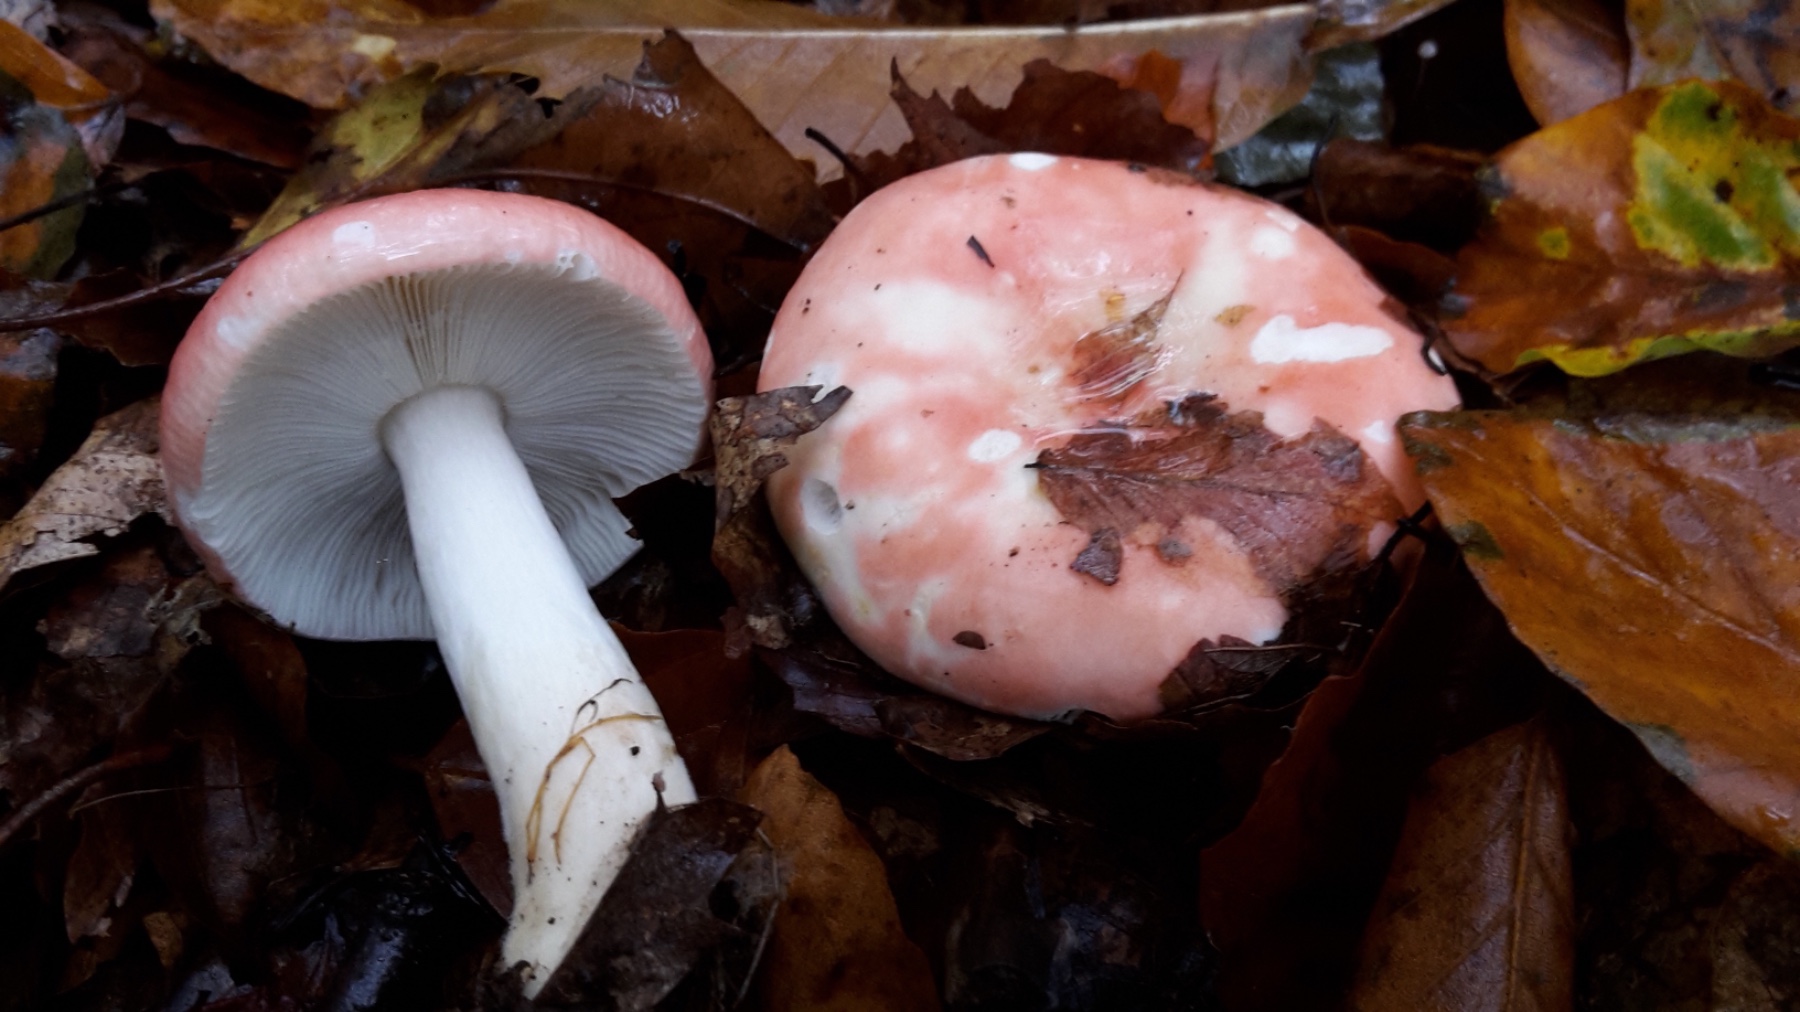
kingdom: Fungi
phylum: Basidiomycota
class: Agaricomycetes
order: Russulales
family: Russulaceae
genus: Russula
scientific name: Russula nobilis
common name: lille gift-skørhat
